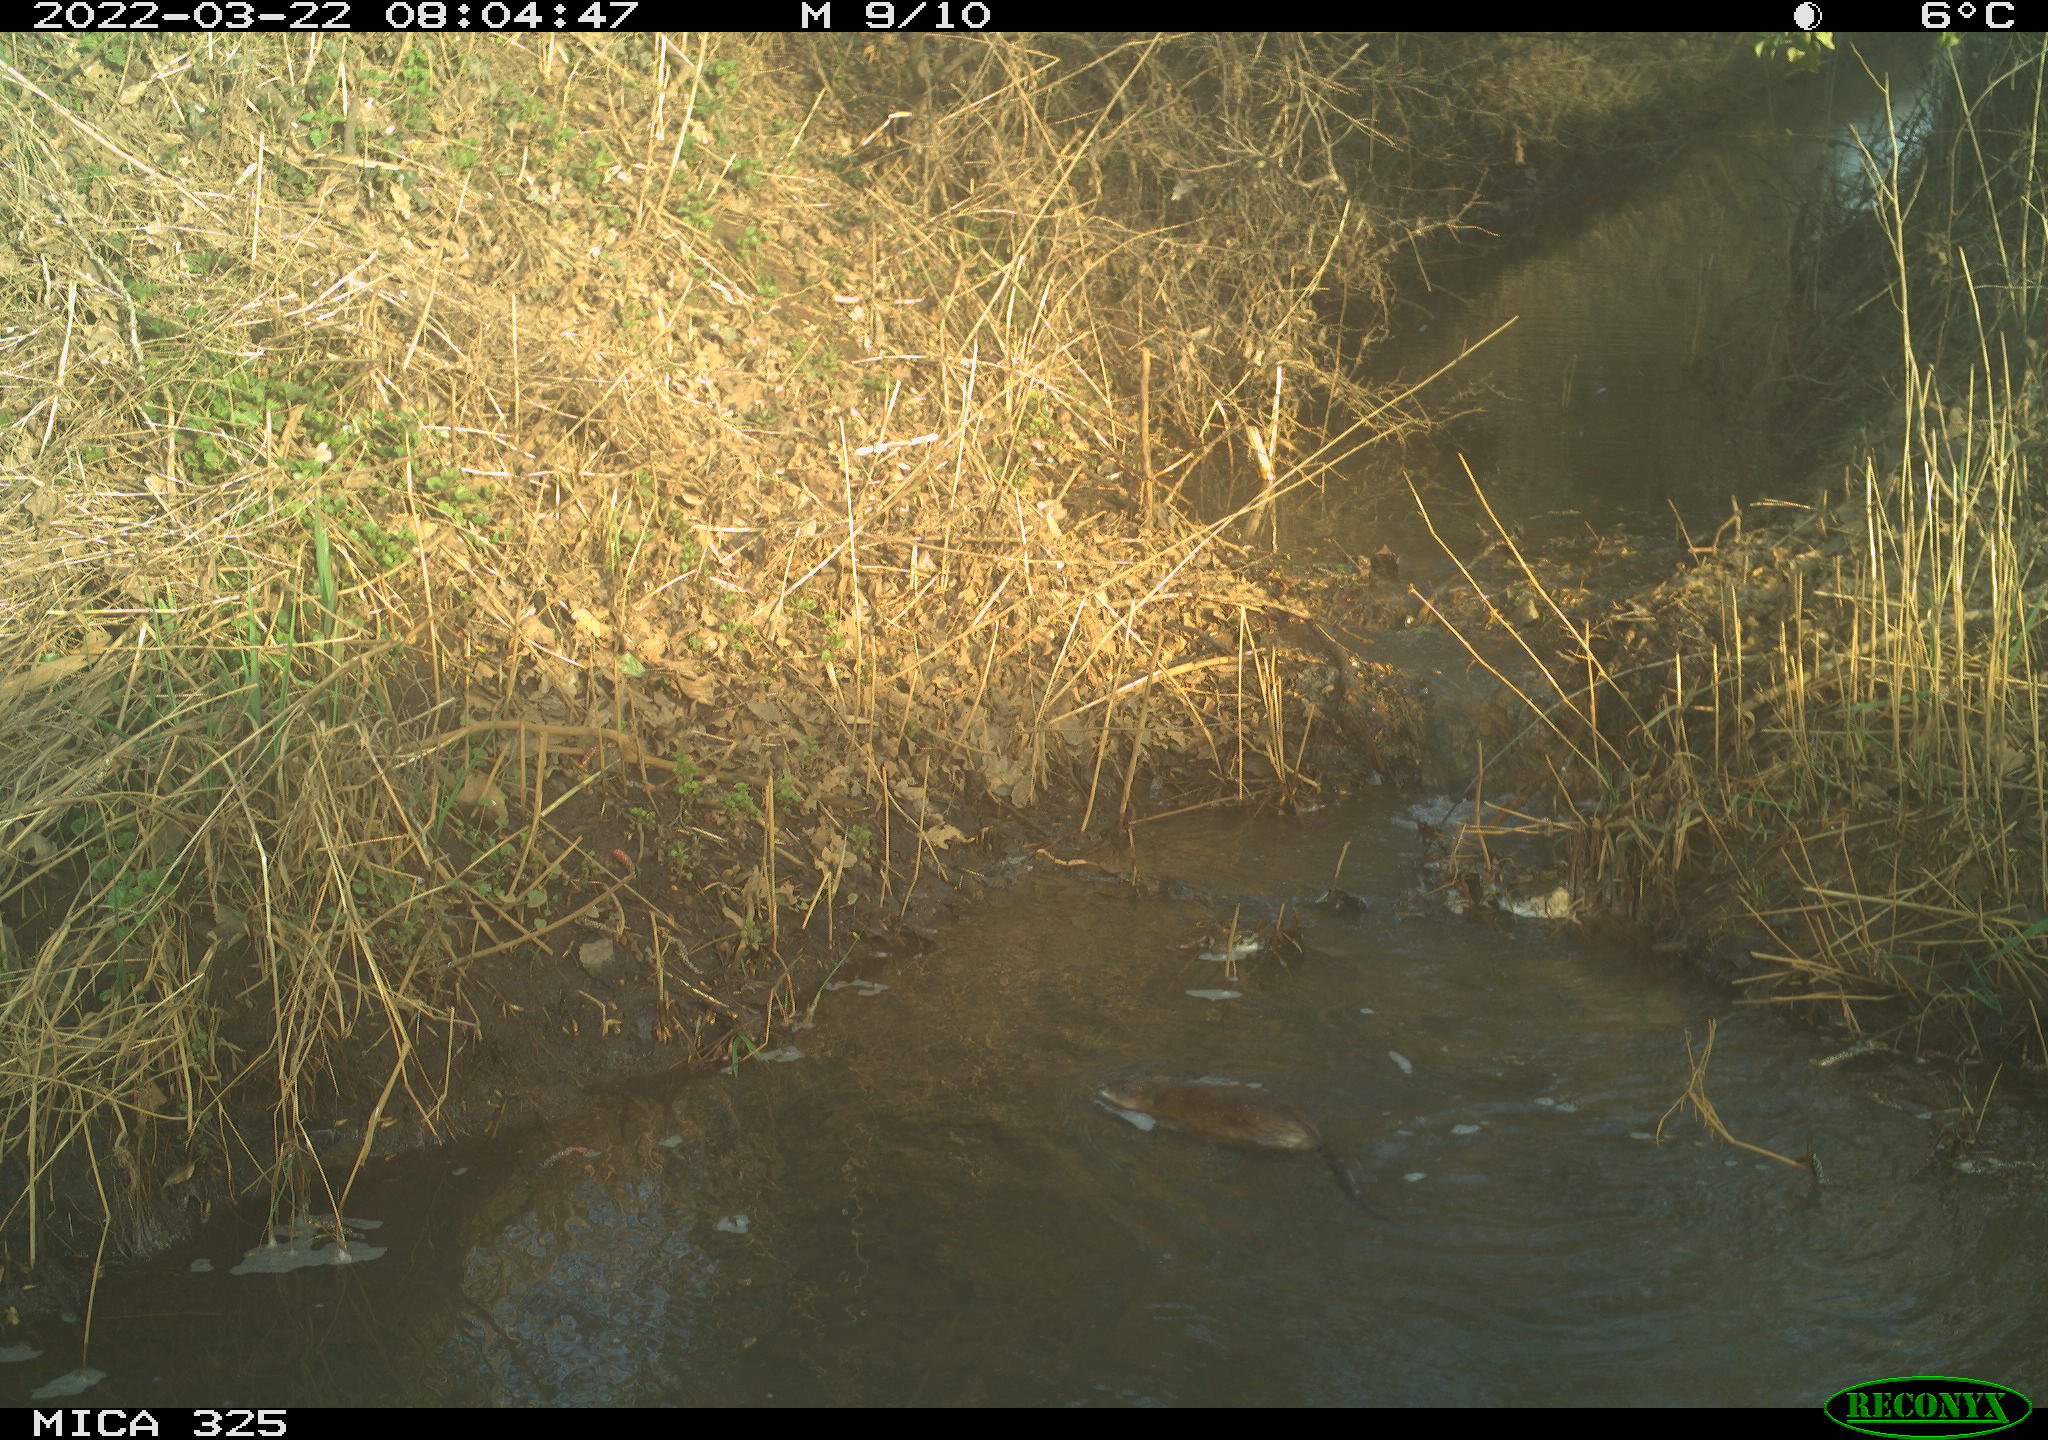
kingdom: Animalia
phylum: Chordata
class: Mammalia
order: Rodentia
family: Cricetidae
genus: Ondatra
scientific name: Ondatra zibethicus
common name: Muskrat
